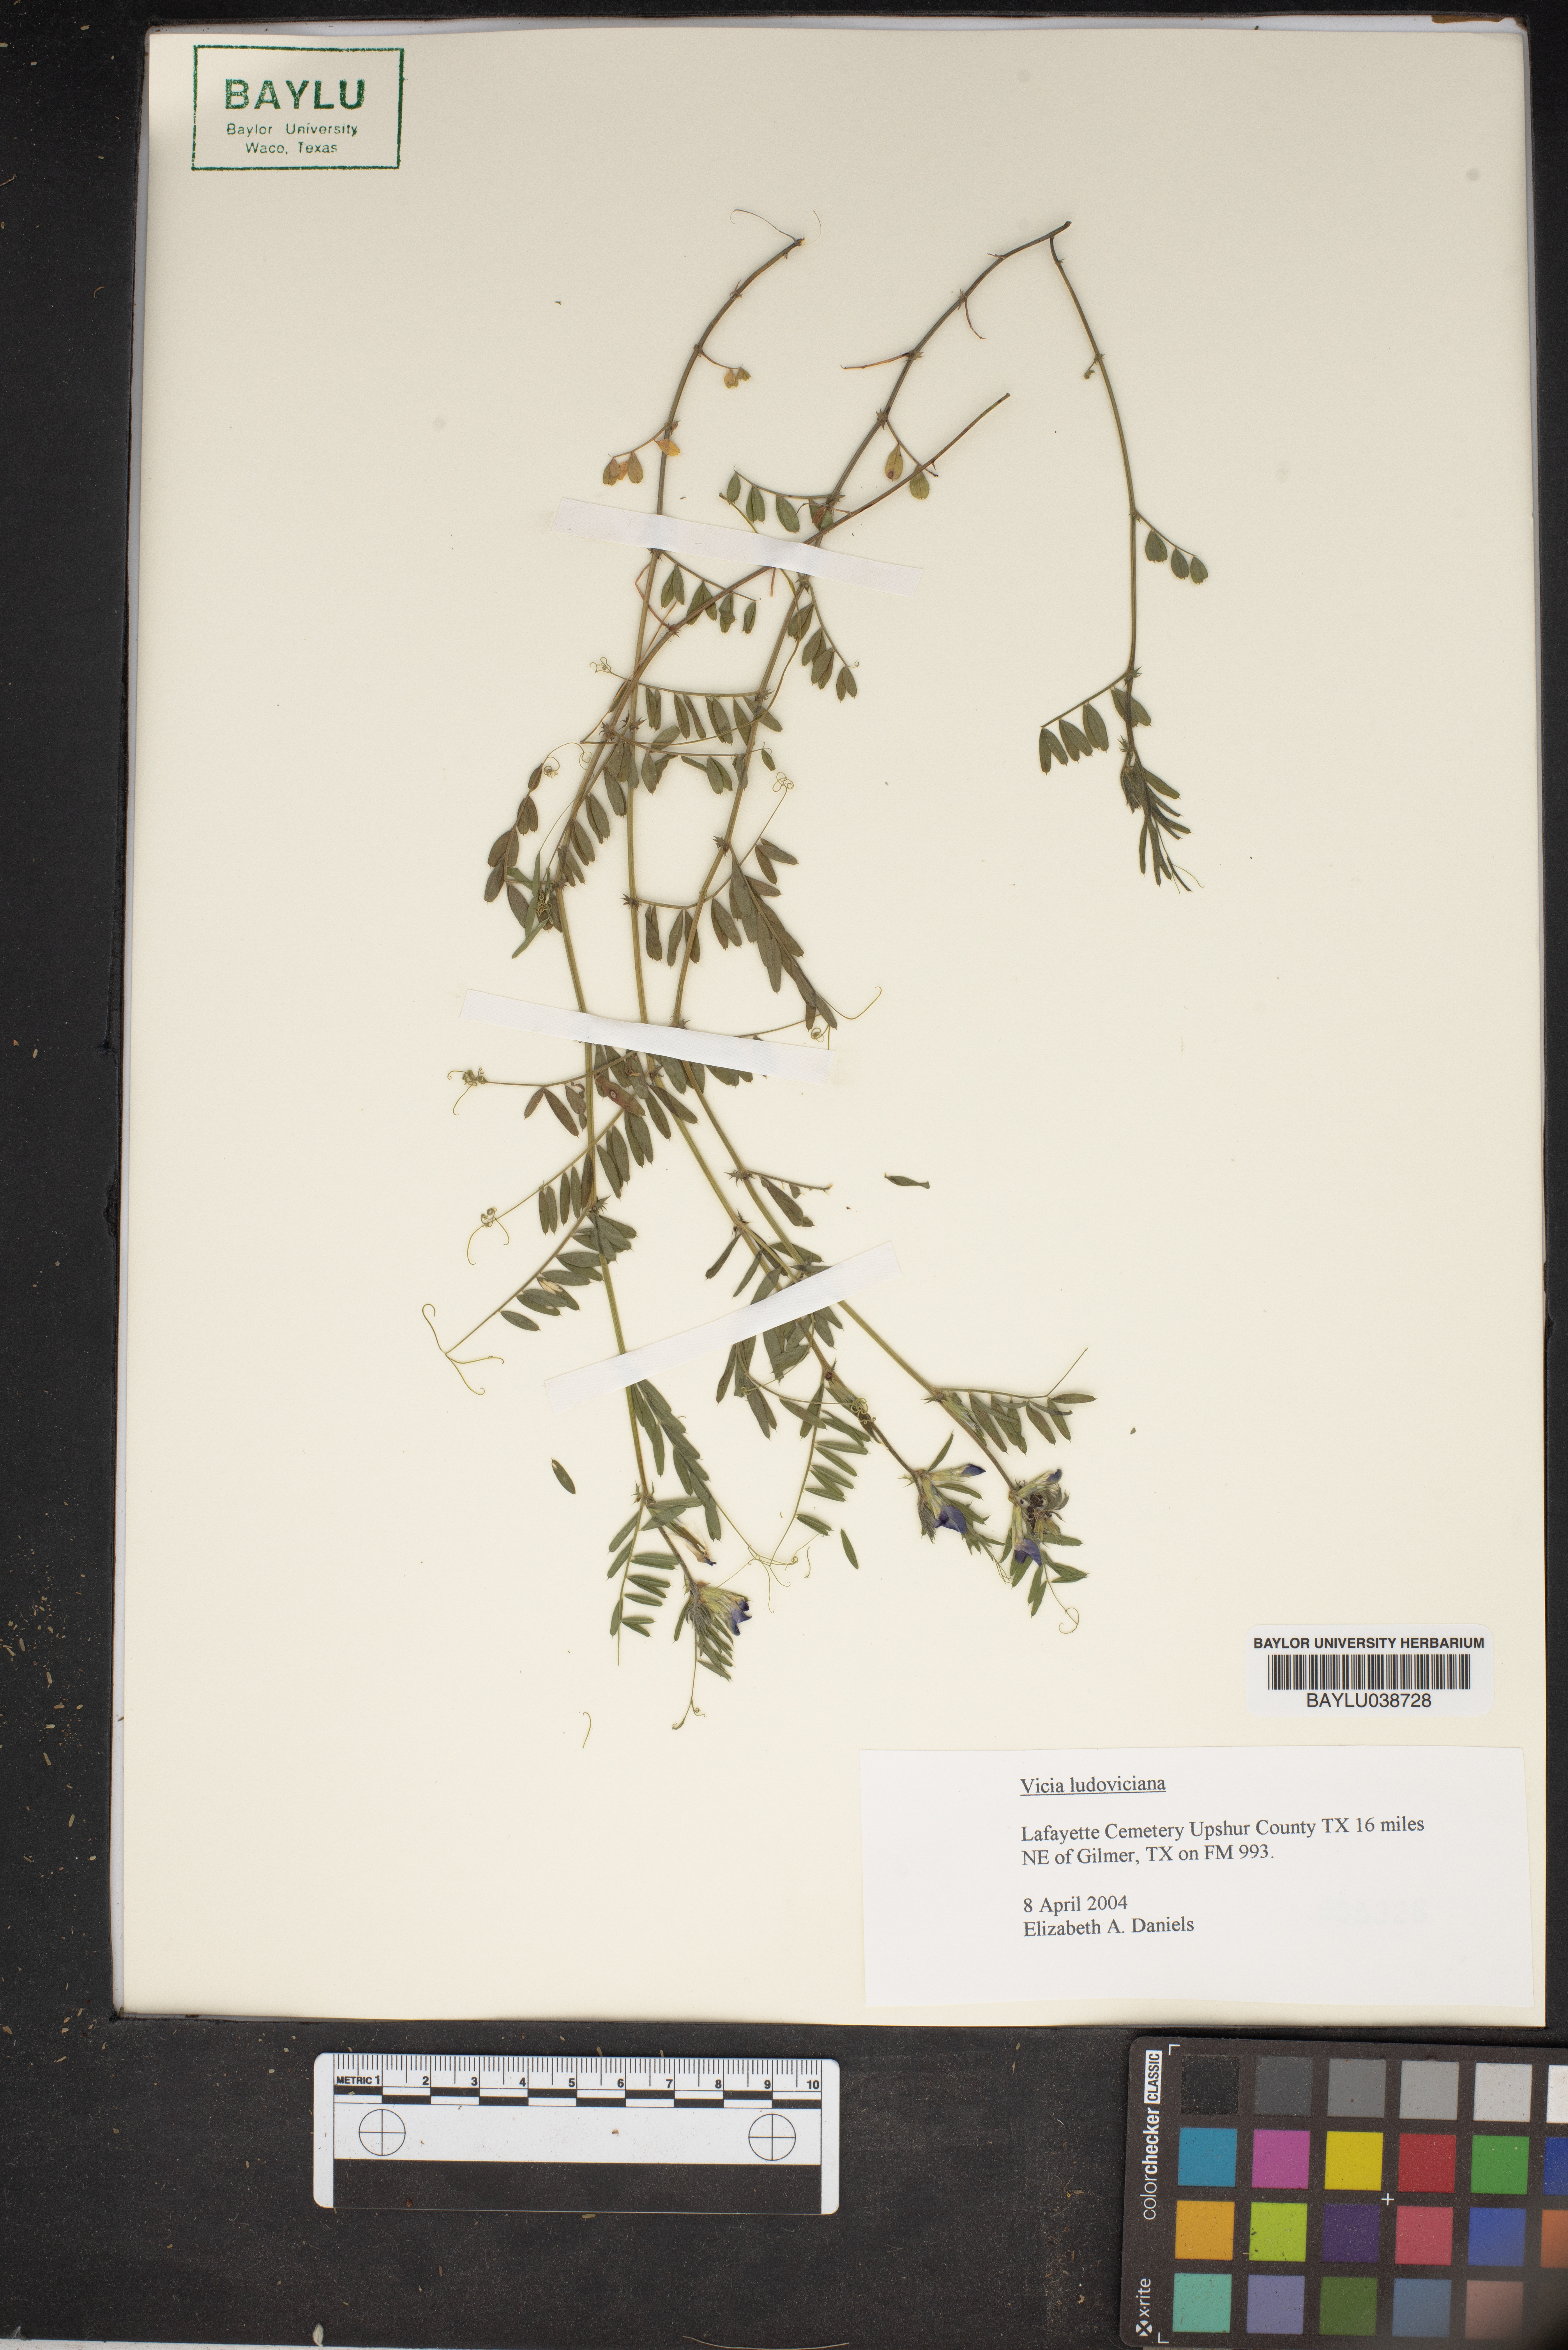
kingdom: Plantae
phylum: Tracheophyta
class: Magnoliopsida
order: Fabales
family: Fabaceae
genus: Vicia
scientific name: Vicia ludoviciana
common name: Louisiana vetch
